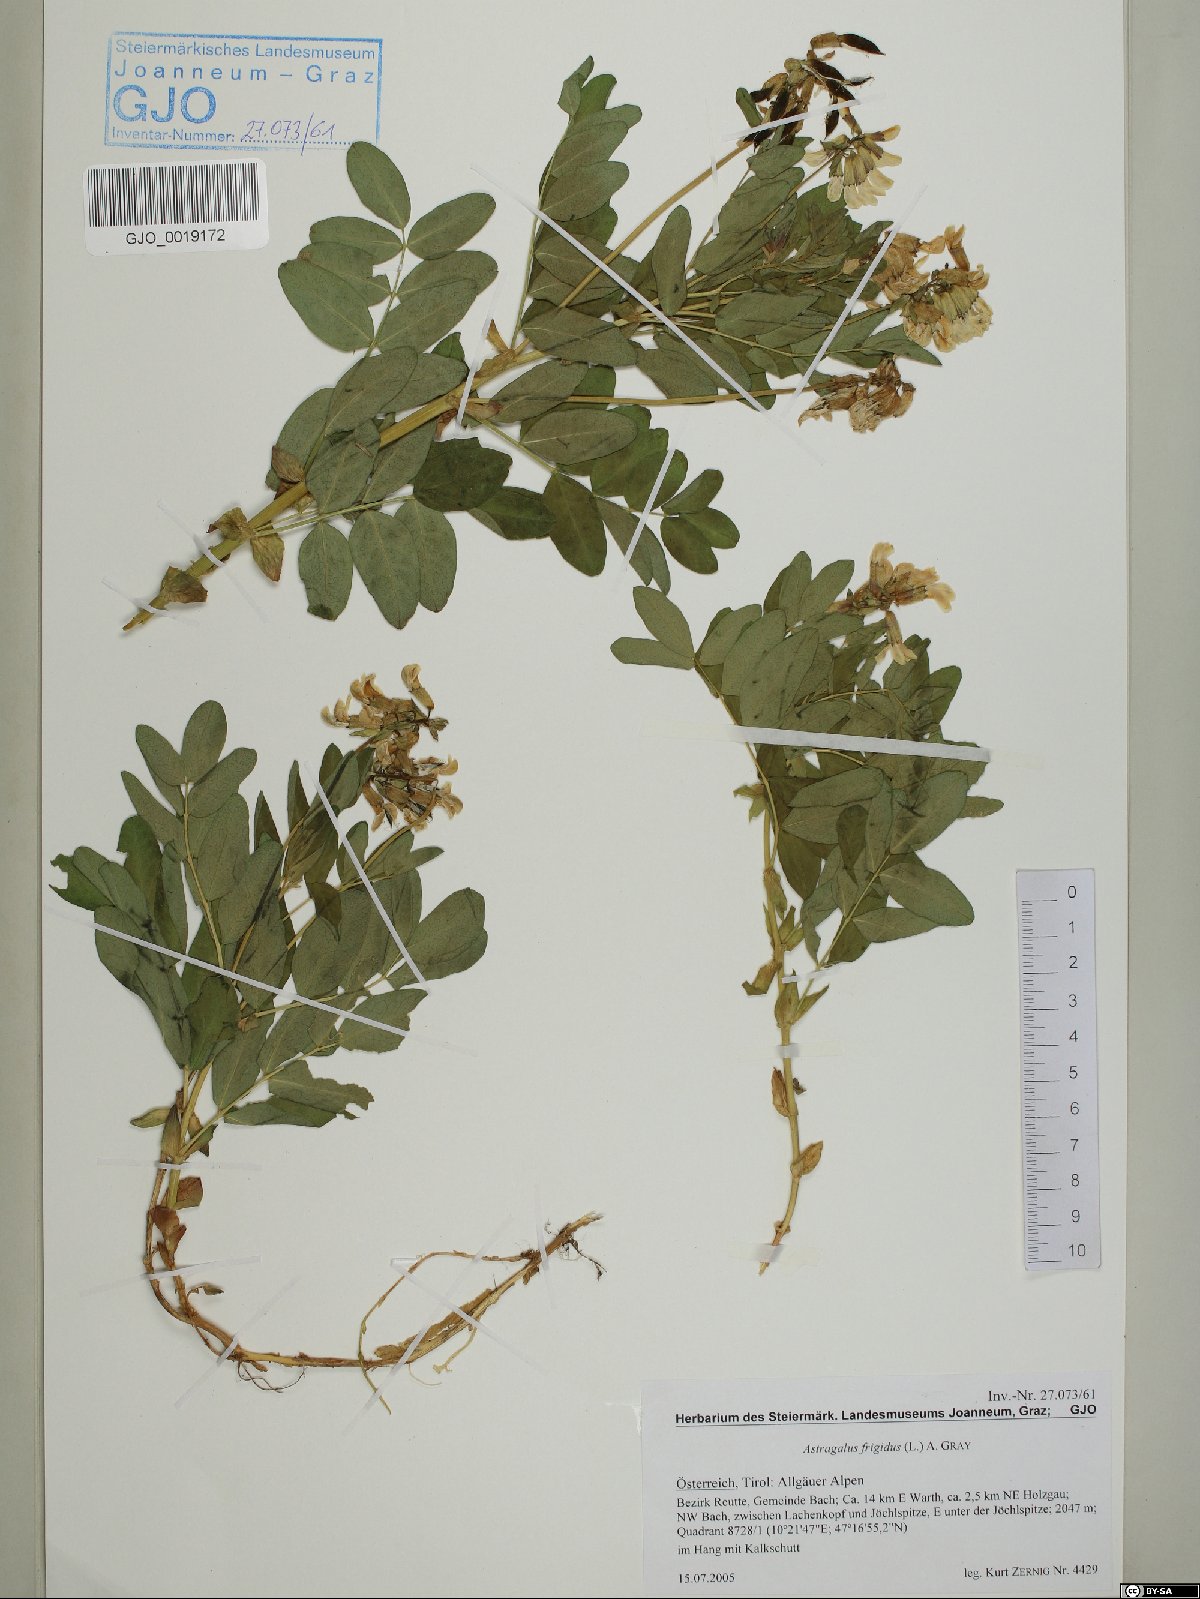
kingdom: Plantae
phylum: Tracheophyta
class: Magnoliopsida
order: Fabales
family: Fabaceae
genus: Astragalus
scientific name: Astragalus frigidus
